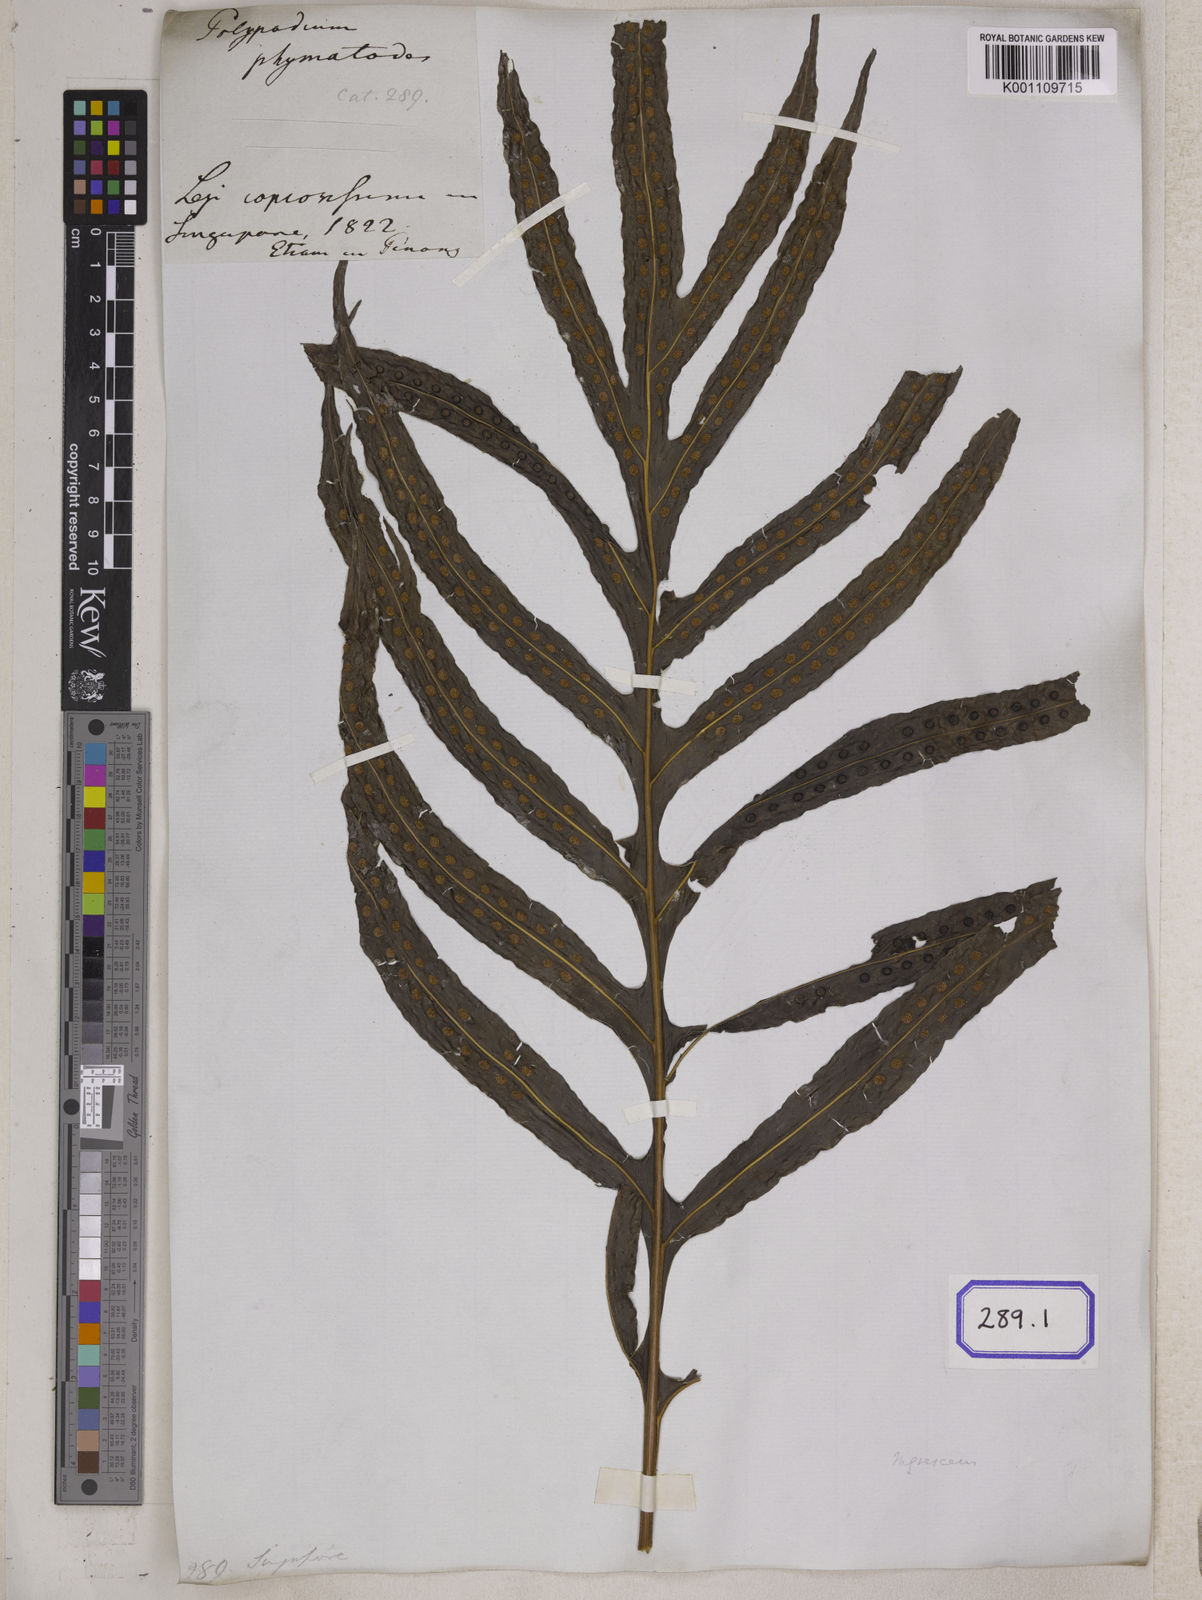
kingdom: Plantae
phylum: Tracheophyta
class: Polypodiopsida
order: Polypodiales
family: Polypodiaceae
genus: Microsorum
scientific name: Microsorum scolopendria
